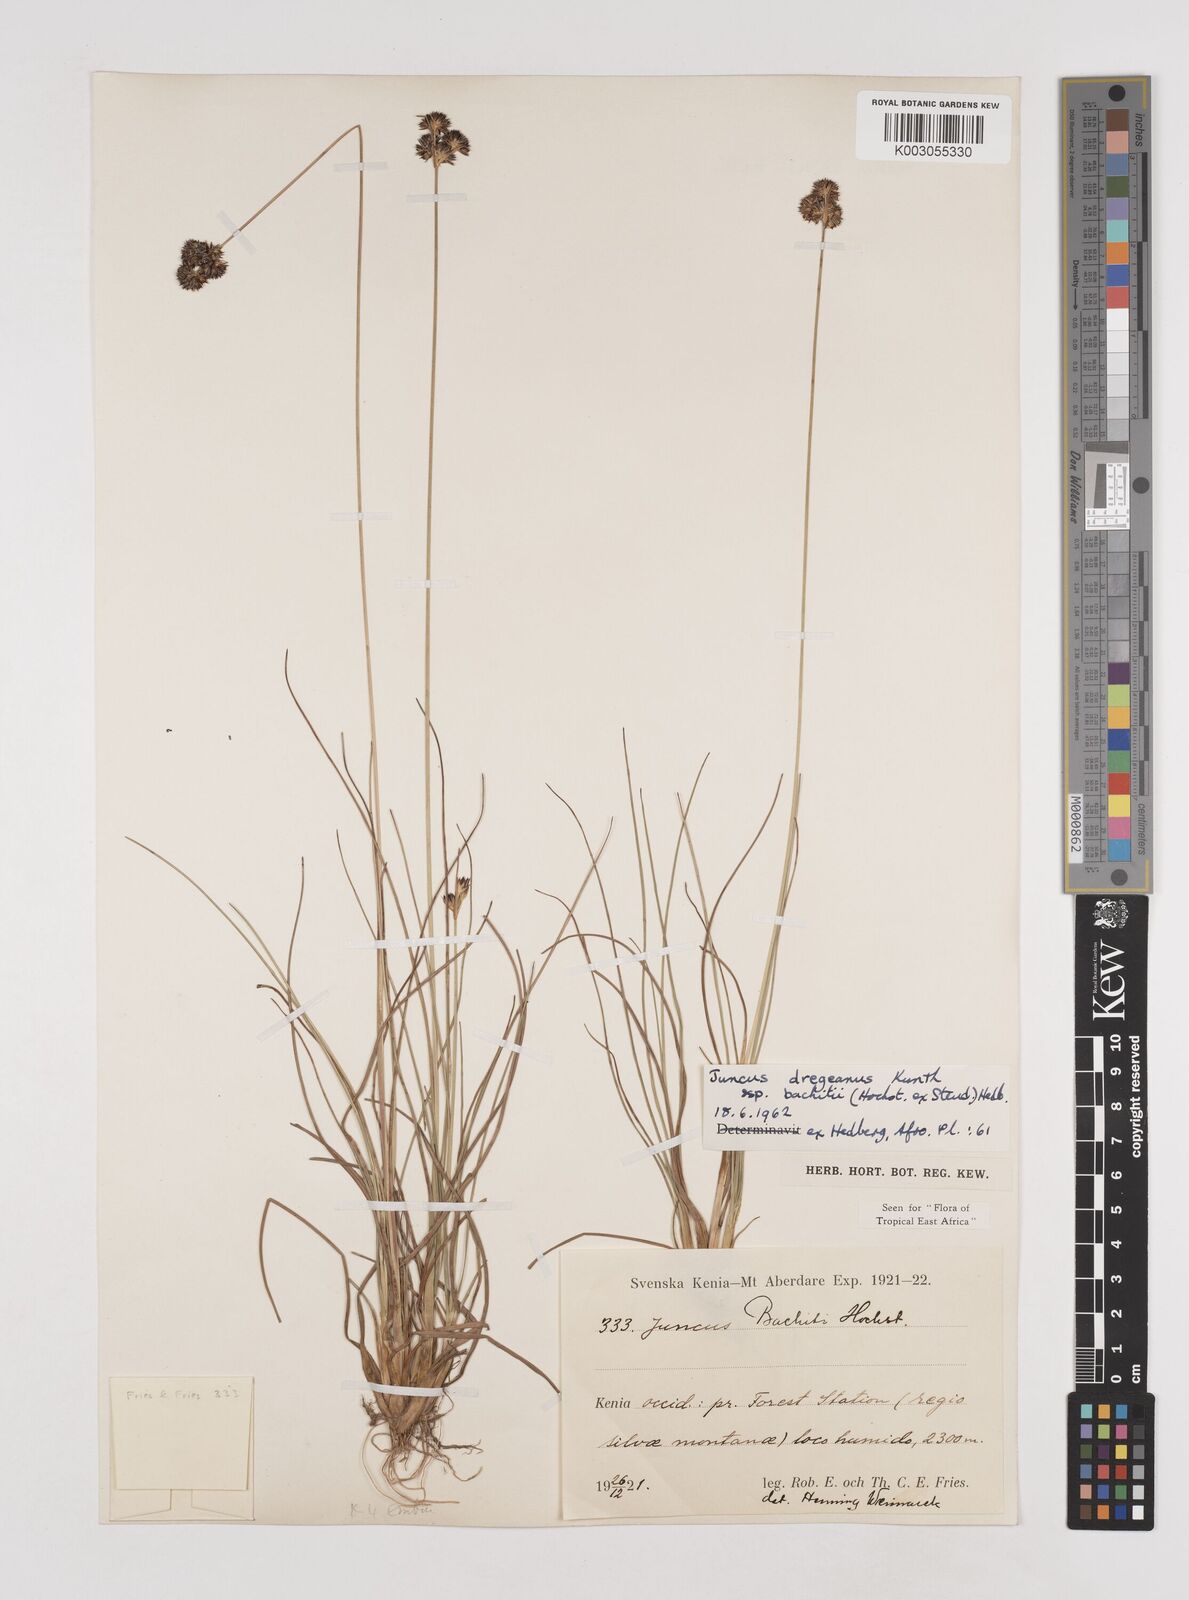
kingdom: Plantae
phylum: Tracheophyta
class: Liliopsida
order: Poales
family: Juncaceae
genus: Juncus
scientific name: Juncus dregeanus
